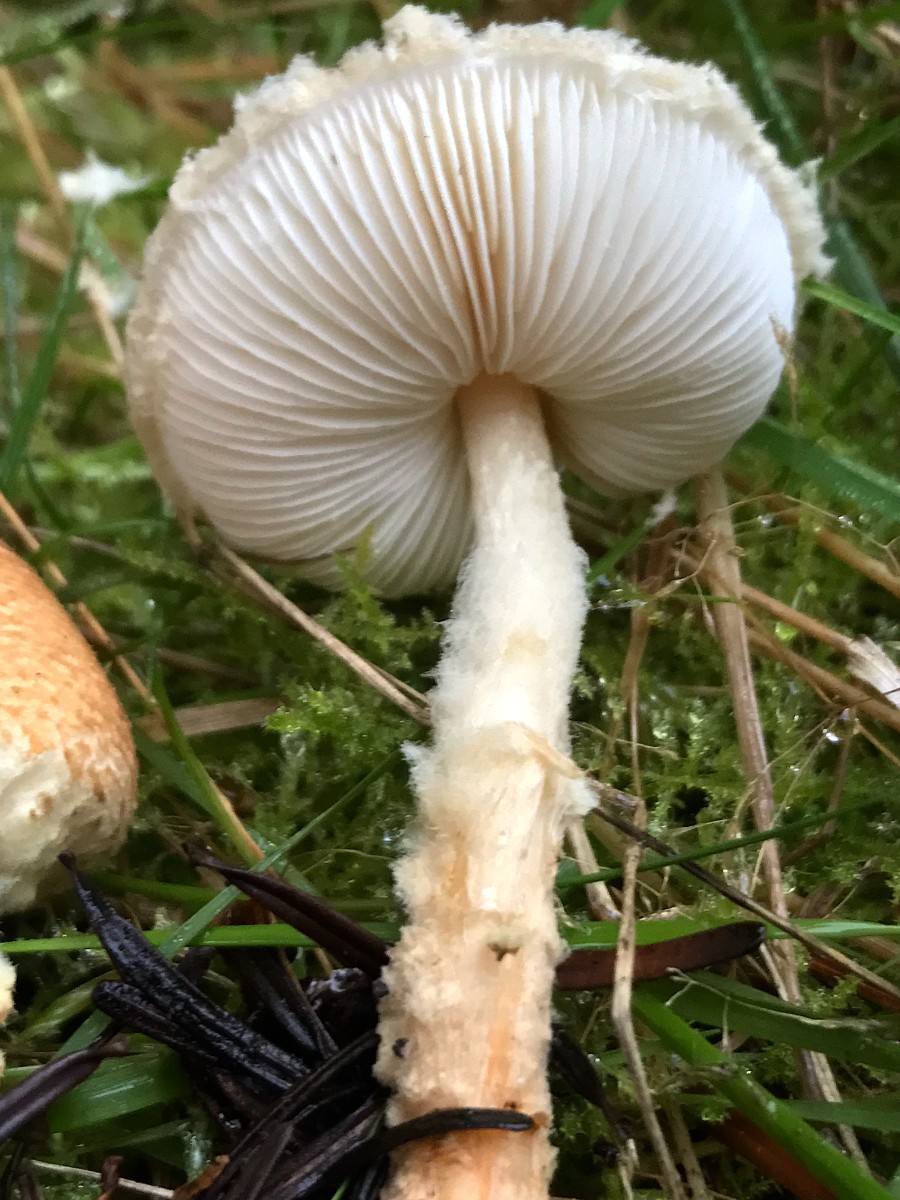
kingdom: Fungi
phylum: Basidiomycota
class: Agaricomycetes
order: Agaricales
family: Agaricaceae
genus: Lepiota
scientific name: Lepiota magnispora
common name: gulfnugget parasolhat
